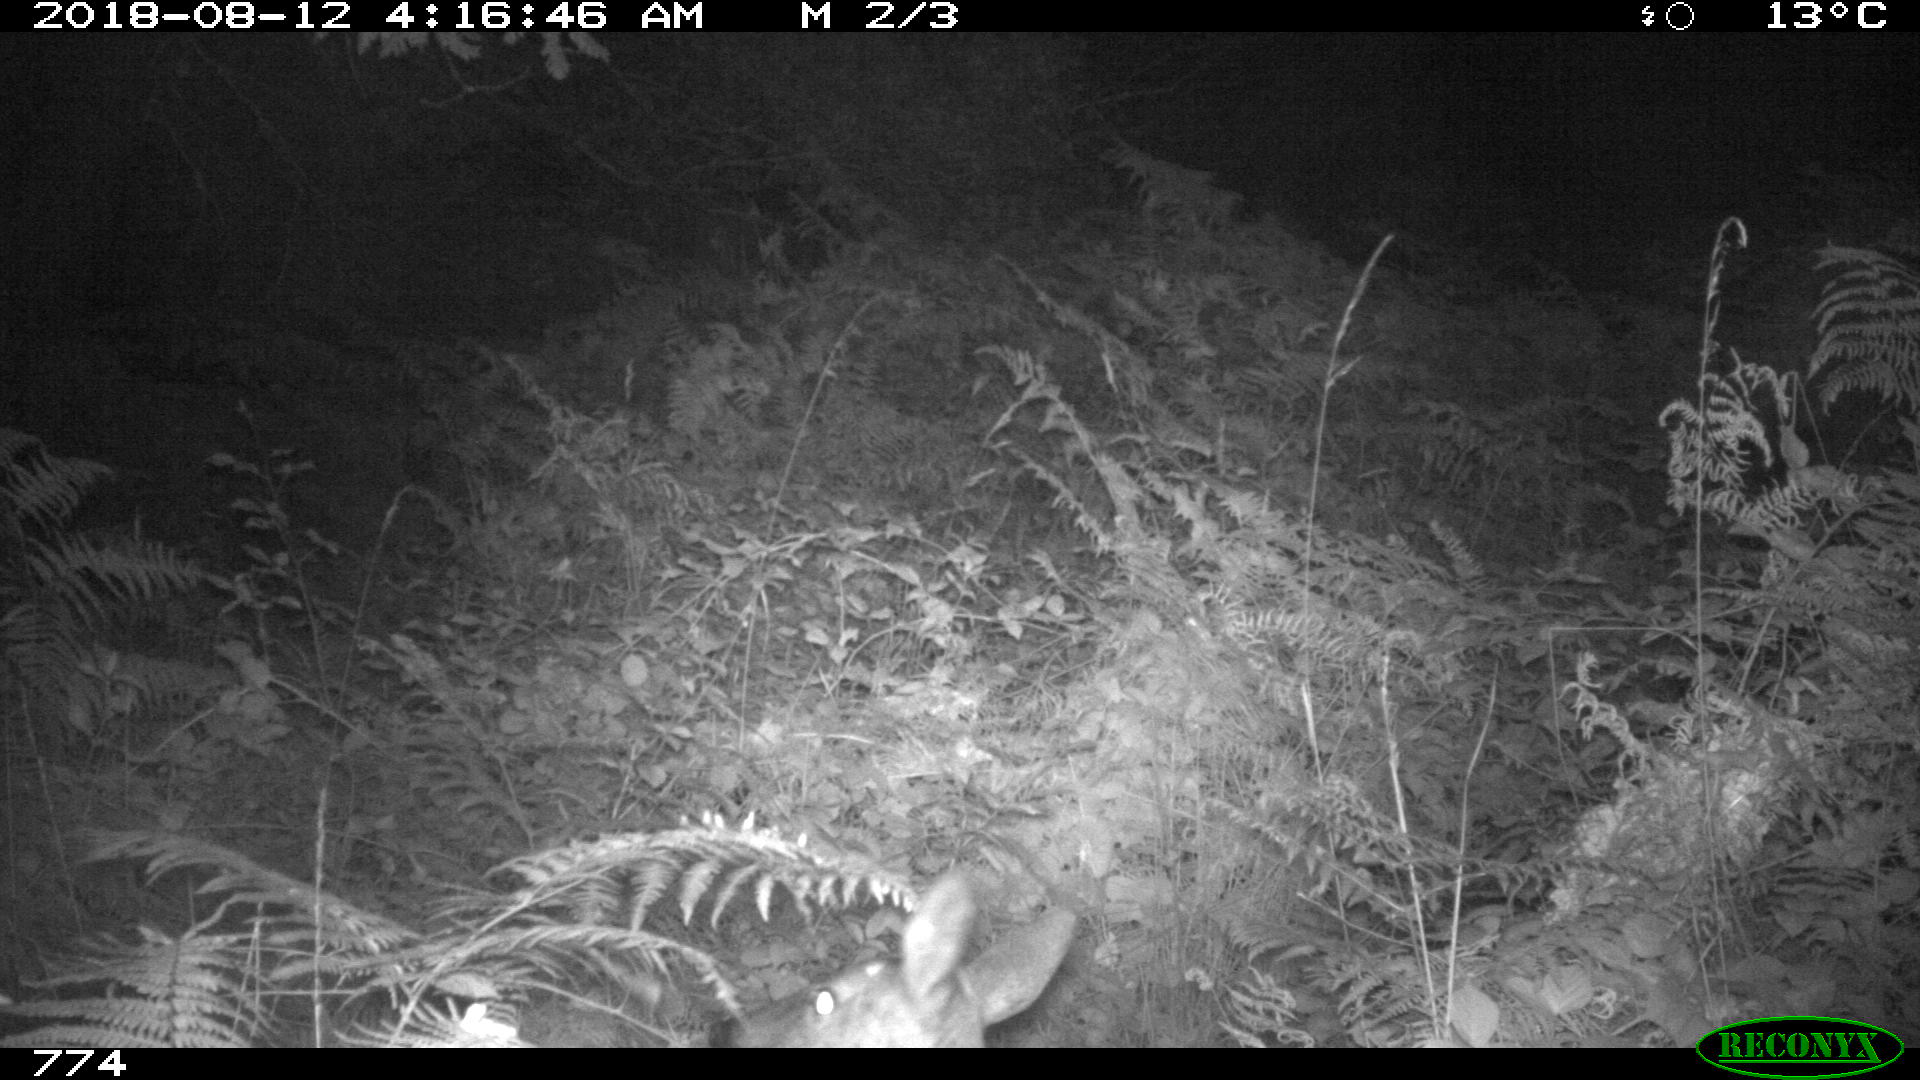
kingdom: Animalia
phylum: Chordata
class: Mammalia
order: Artiodactyla
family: Cervidae
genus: Capreolus
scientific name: Capreolus capreolus
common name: Western roe deer
